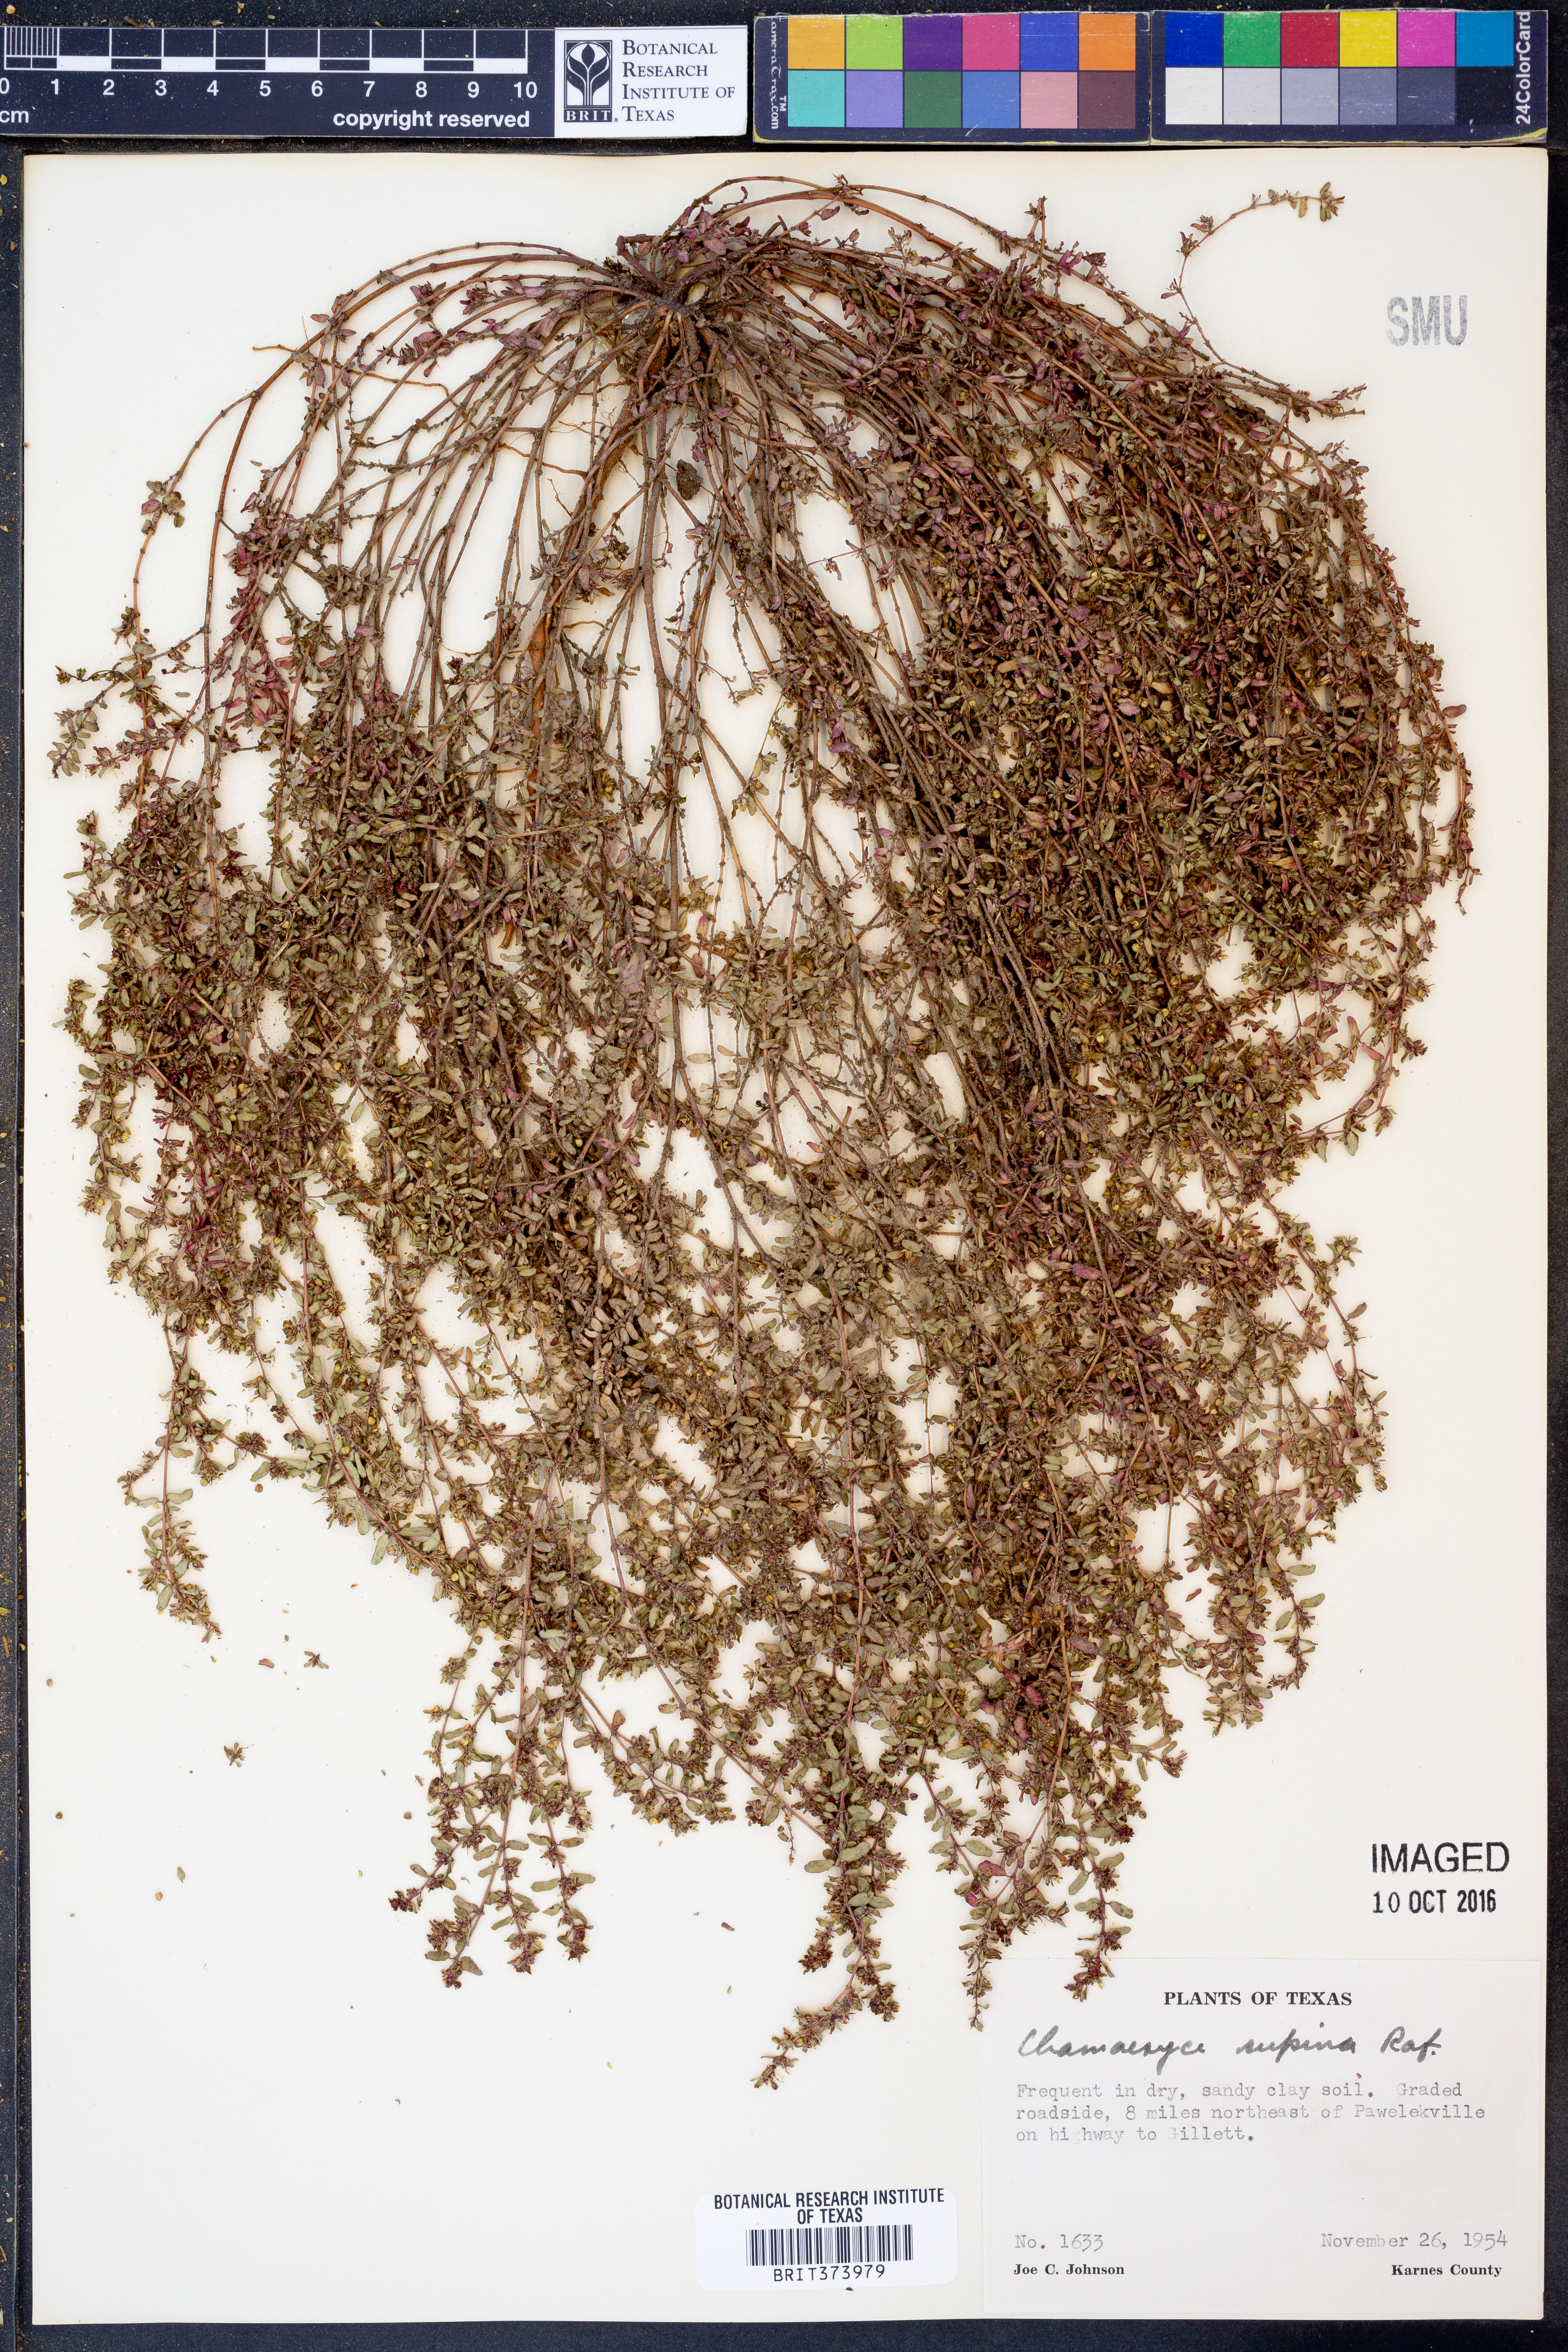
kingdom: Plantae
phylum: Tracheophyta
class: Magnoliopsida
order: Malpighiales
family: Euphorbiaceae
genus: Euphorbia
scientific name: Euphorbia maculata
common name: Spotted spurge
